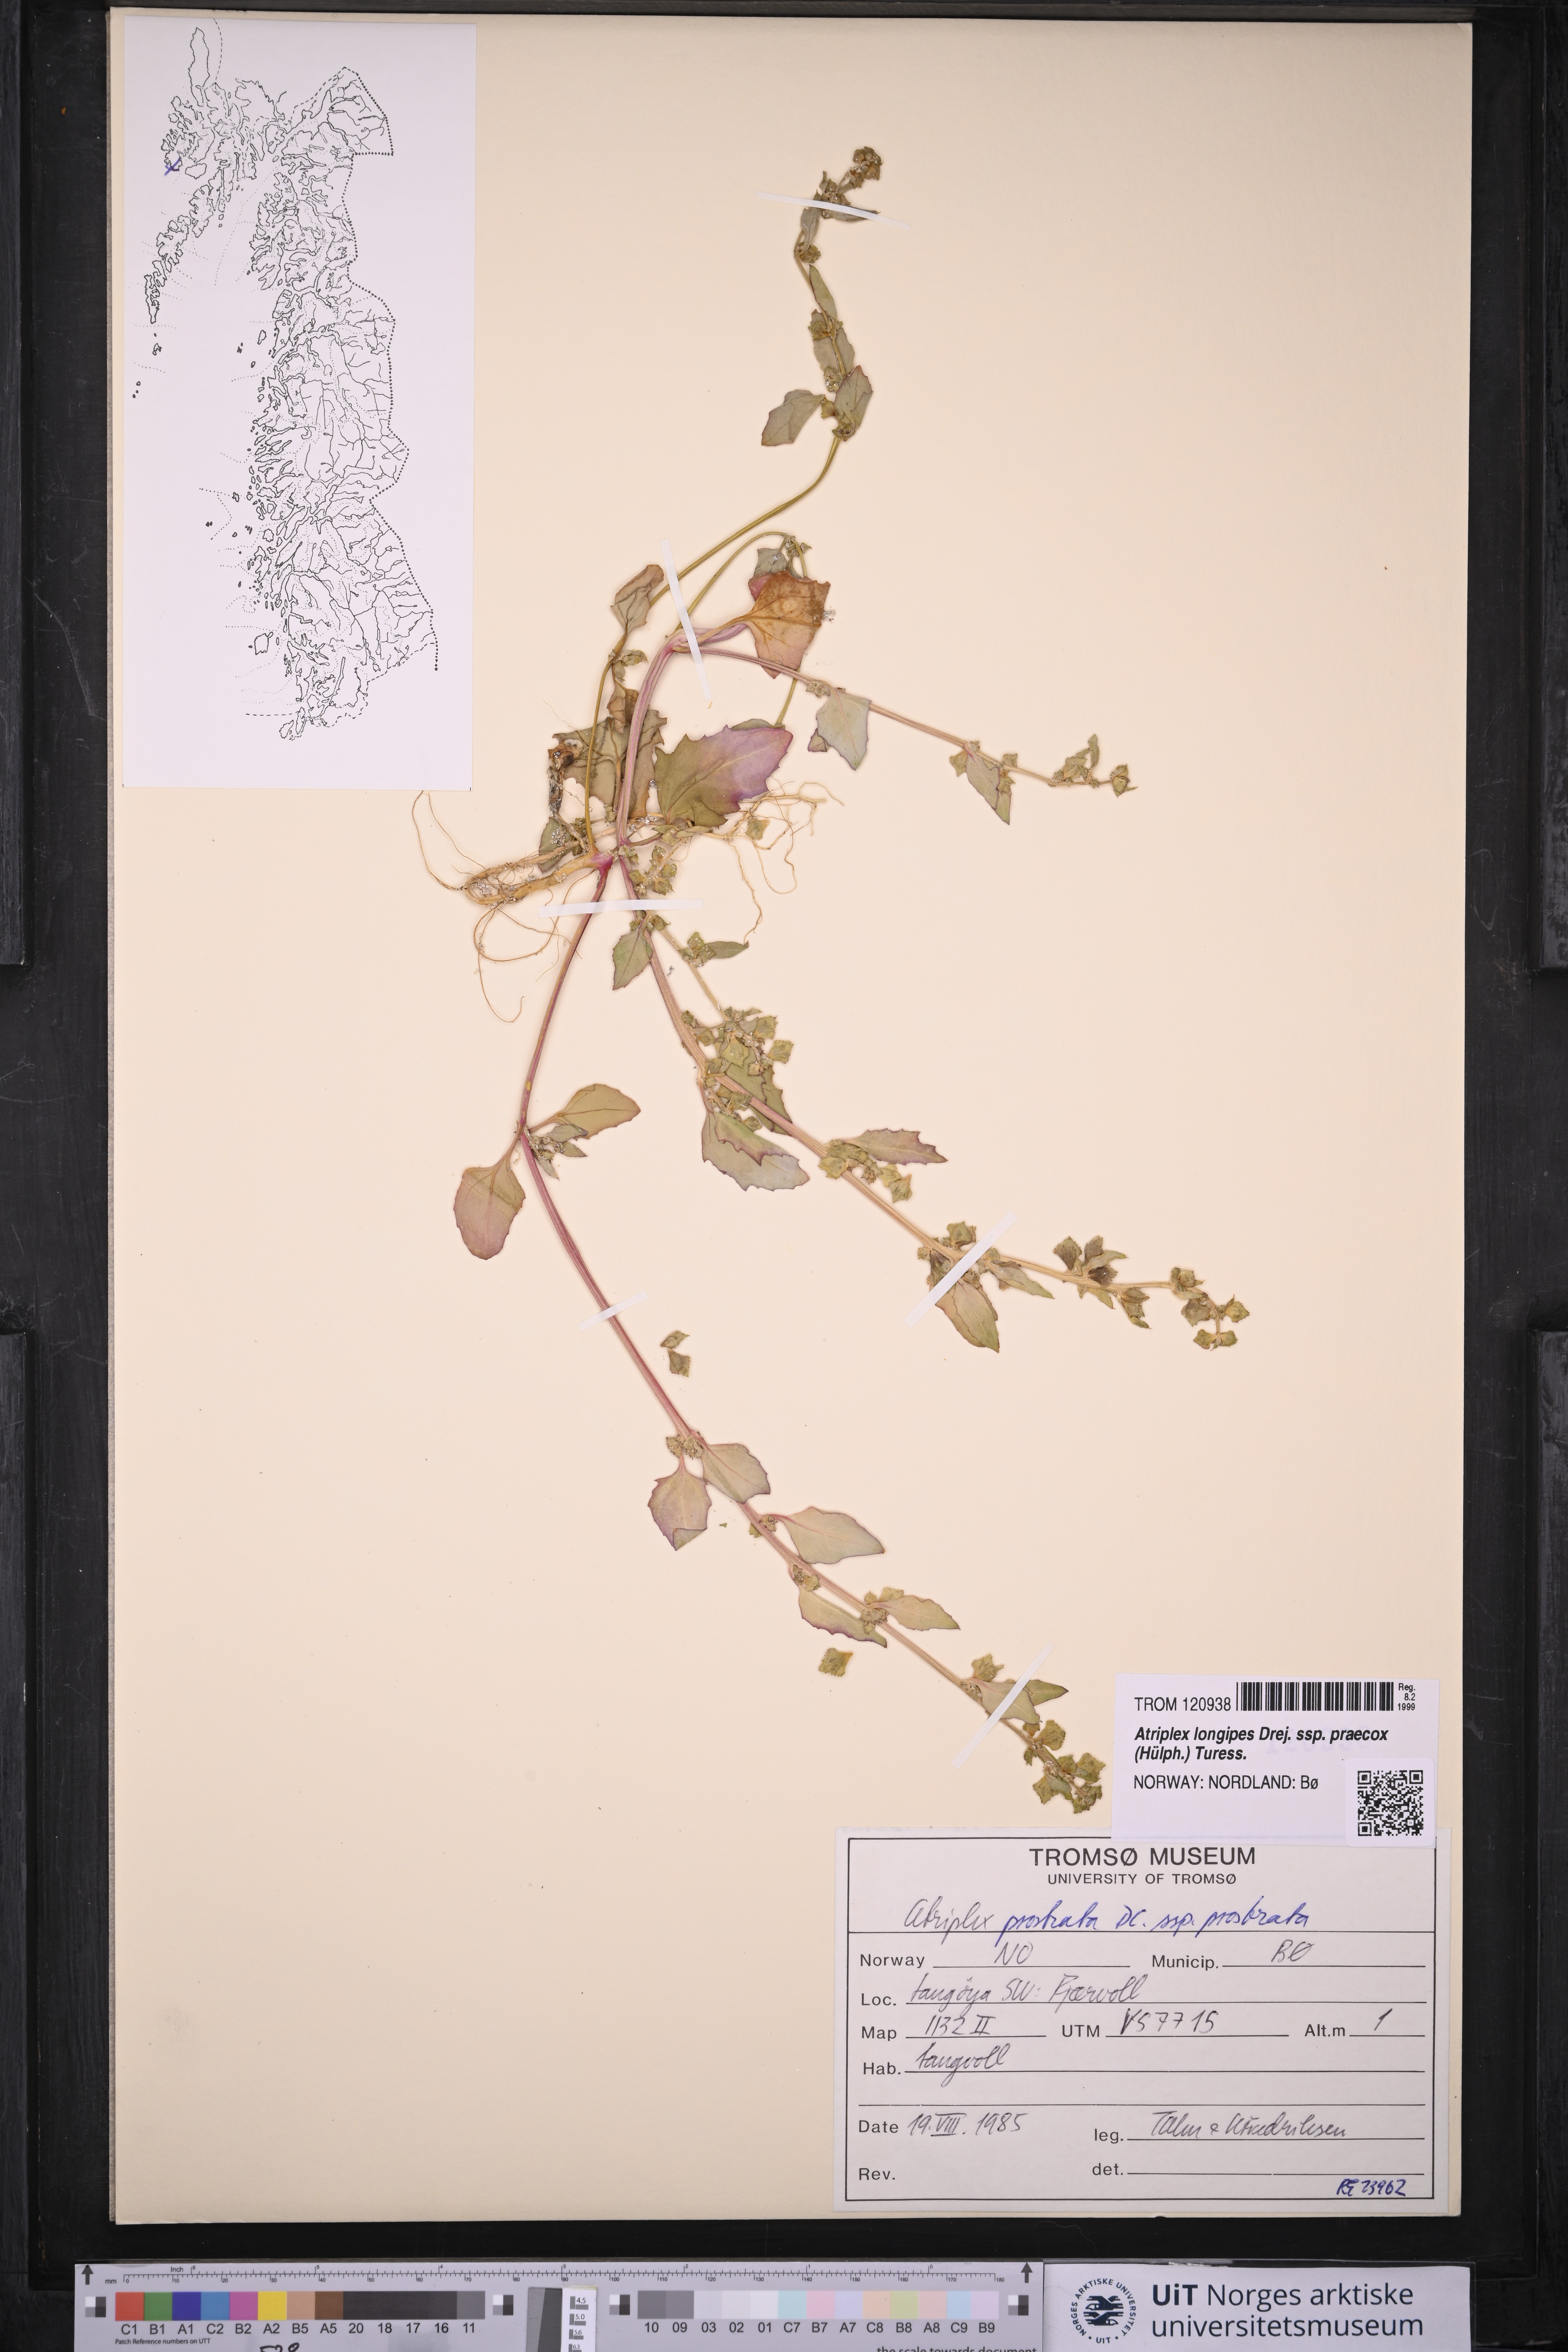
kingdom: Plantae
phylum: Tracheophyta
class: Magnoliopsida
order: Caryophyllales
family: Amaranthaceae
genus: Atriplex
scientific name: Atriplex praecox
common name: Early orache
